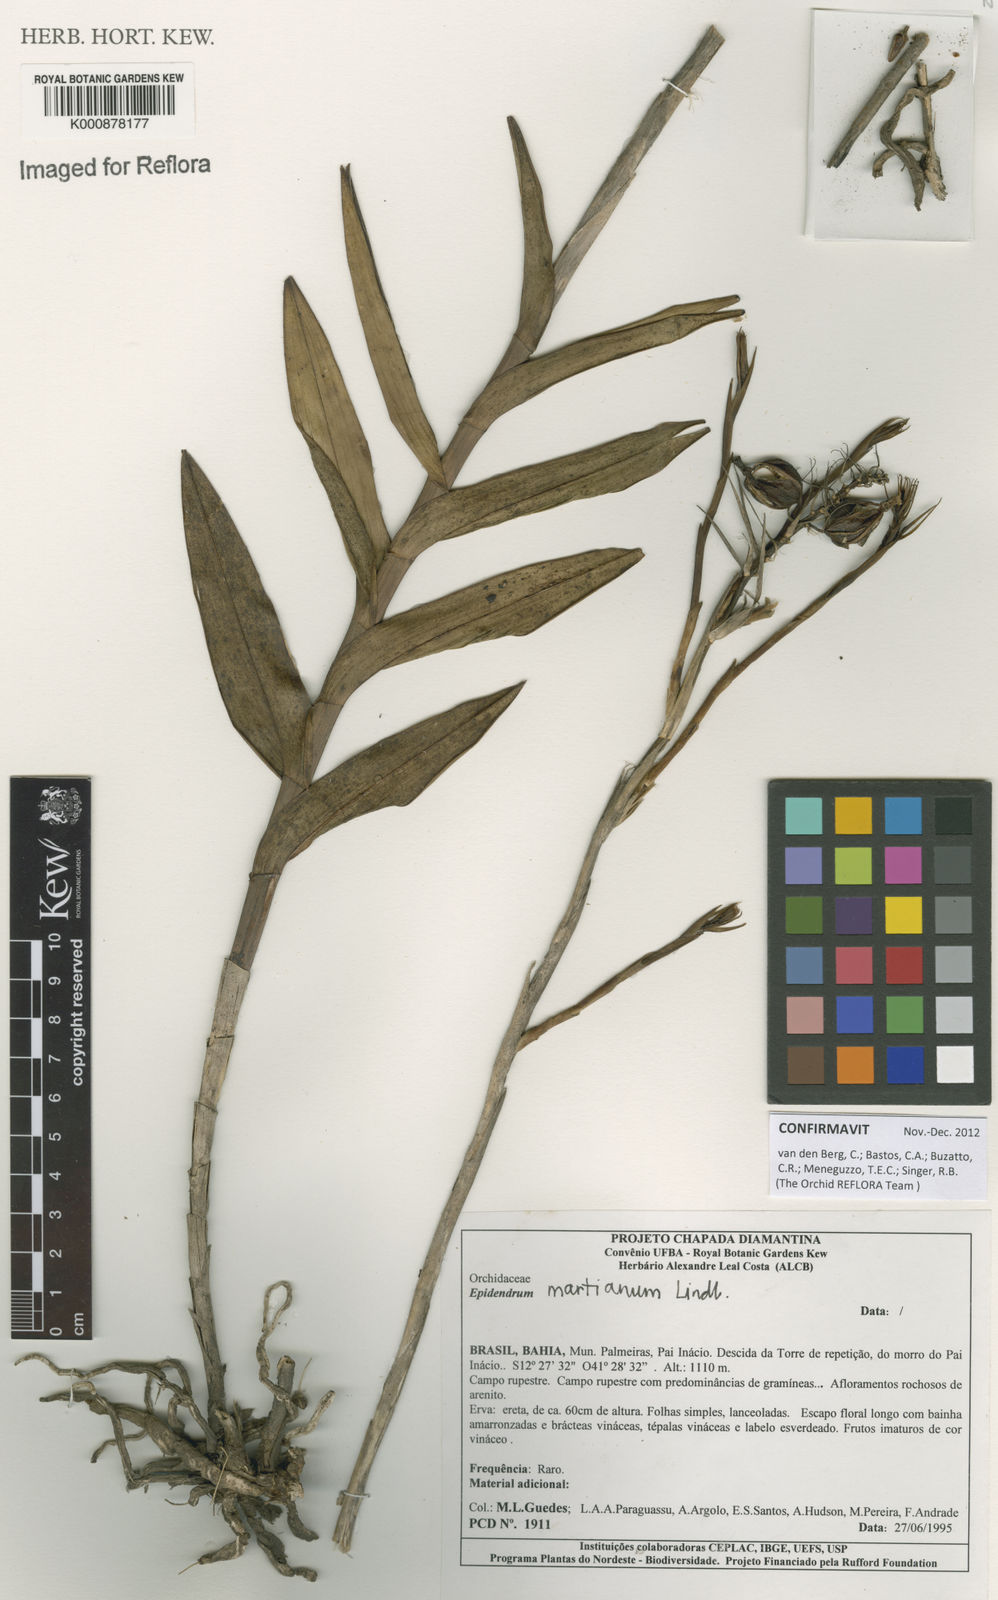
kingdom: Plantae
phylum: Tracheophyta
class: Liliopsida
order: Asparagales
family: Orchidaceae
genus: Epidendrum
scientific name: Epidendrum martianum
